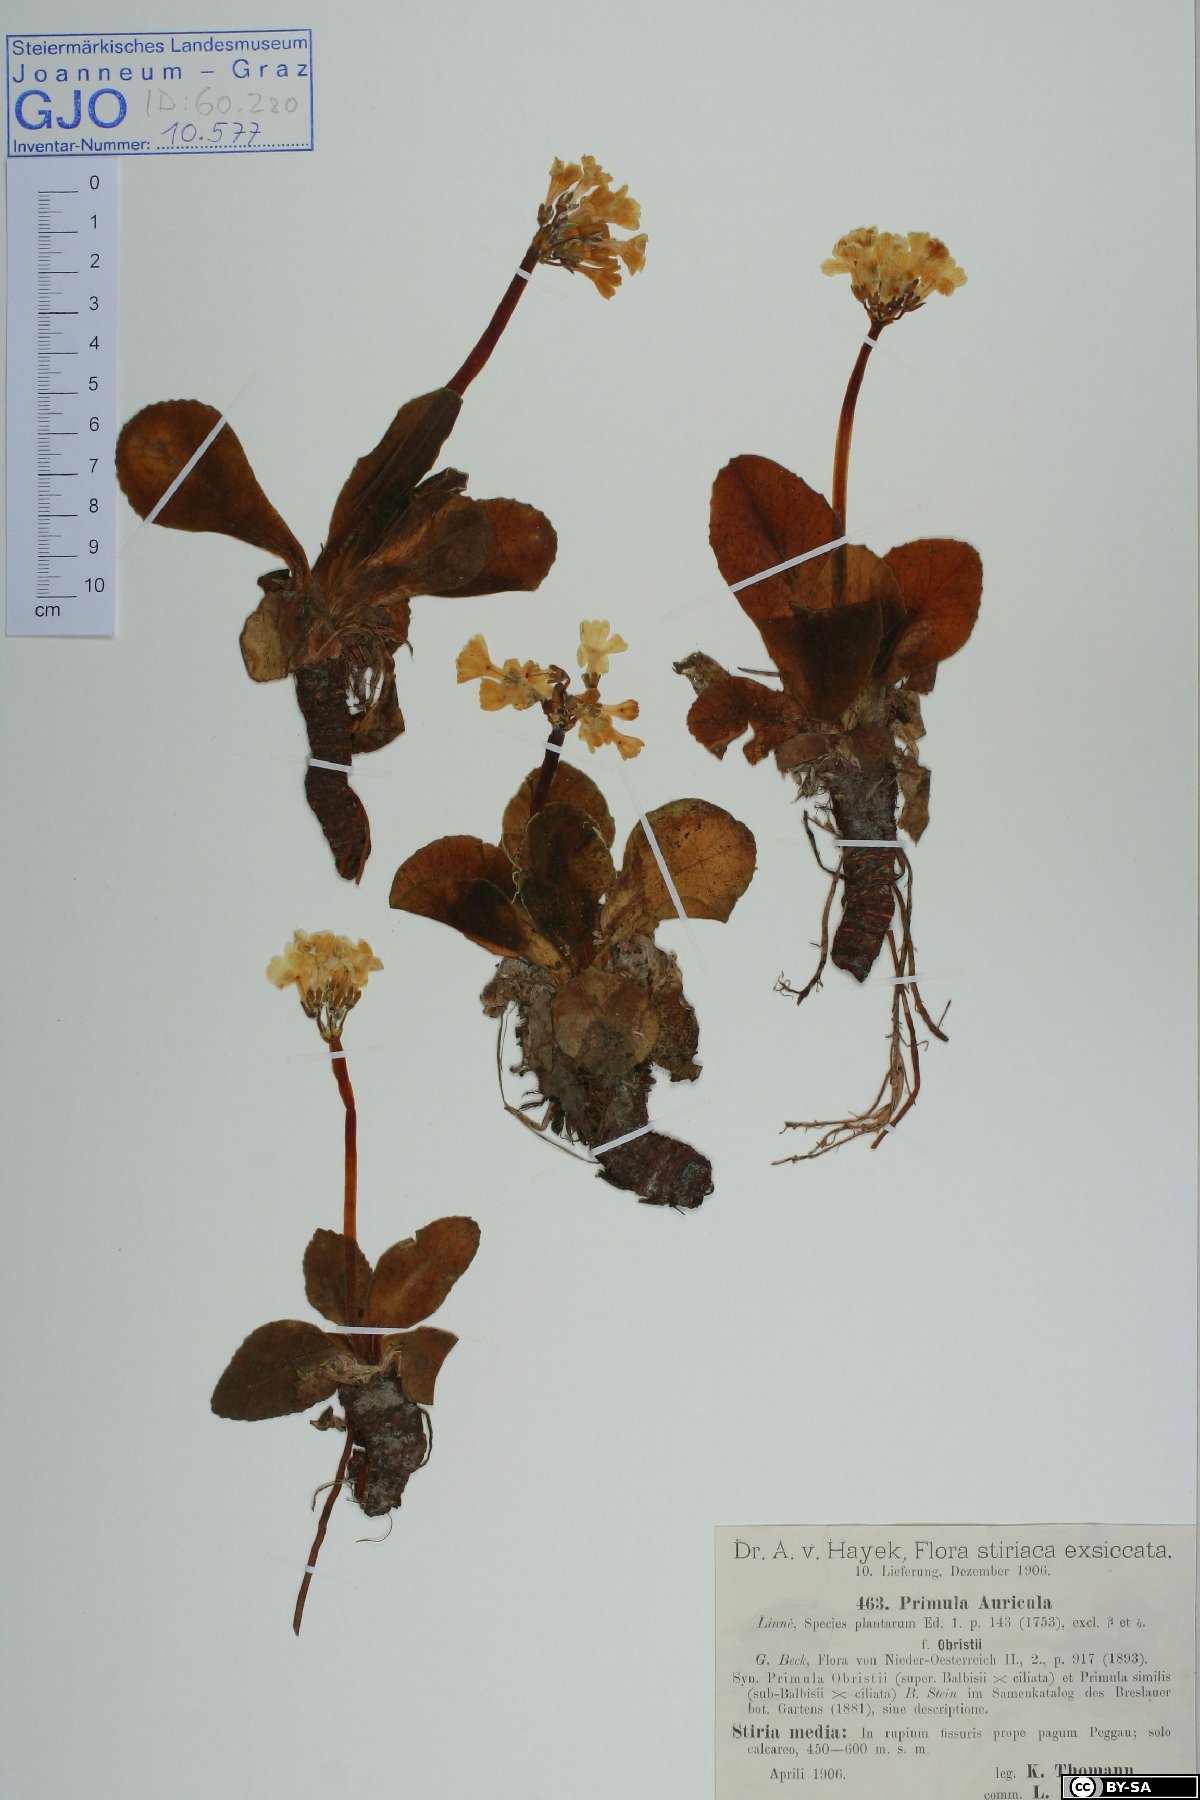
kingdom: Plantae
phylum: Tracheophyta
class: Magnoliopsida
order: Ericales
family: Primulaceae
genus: Primula
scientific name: Primula auricula
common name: Auricula
